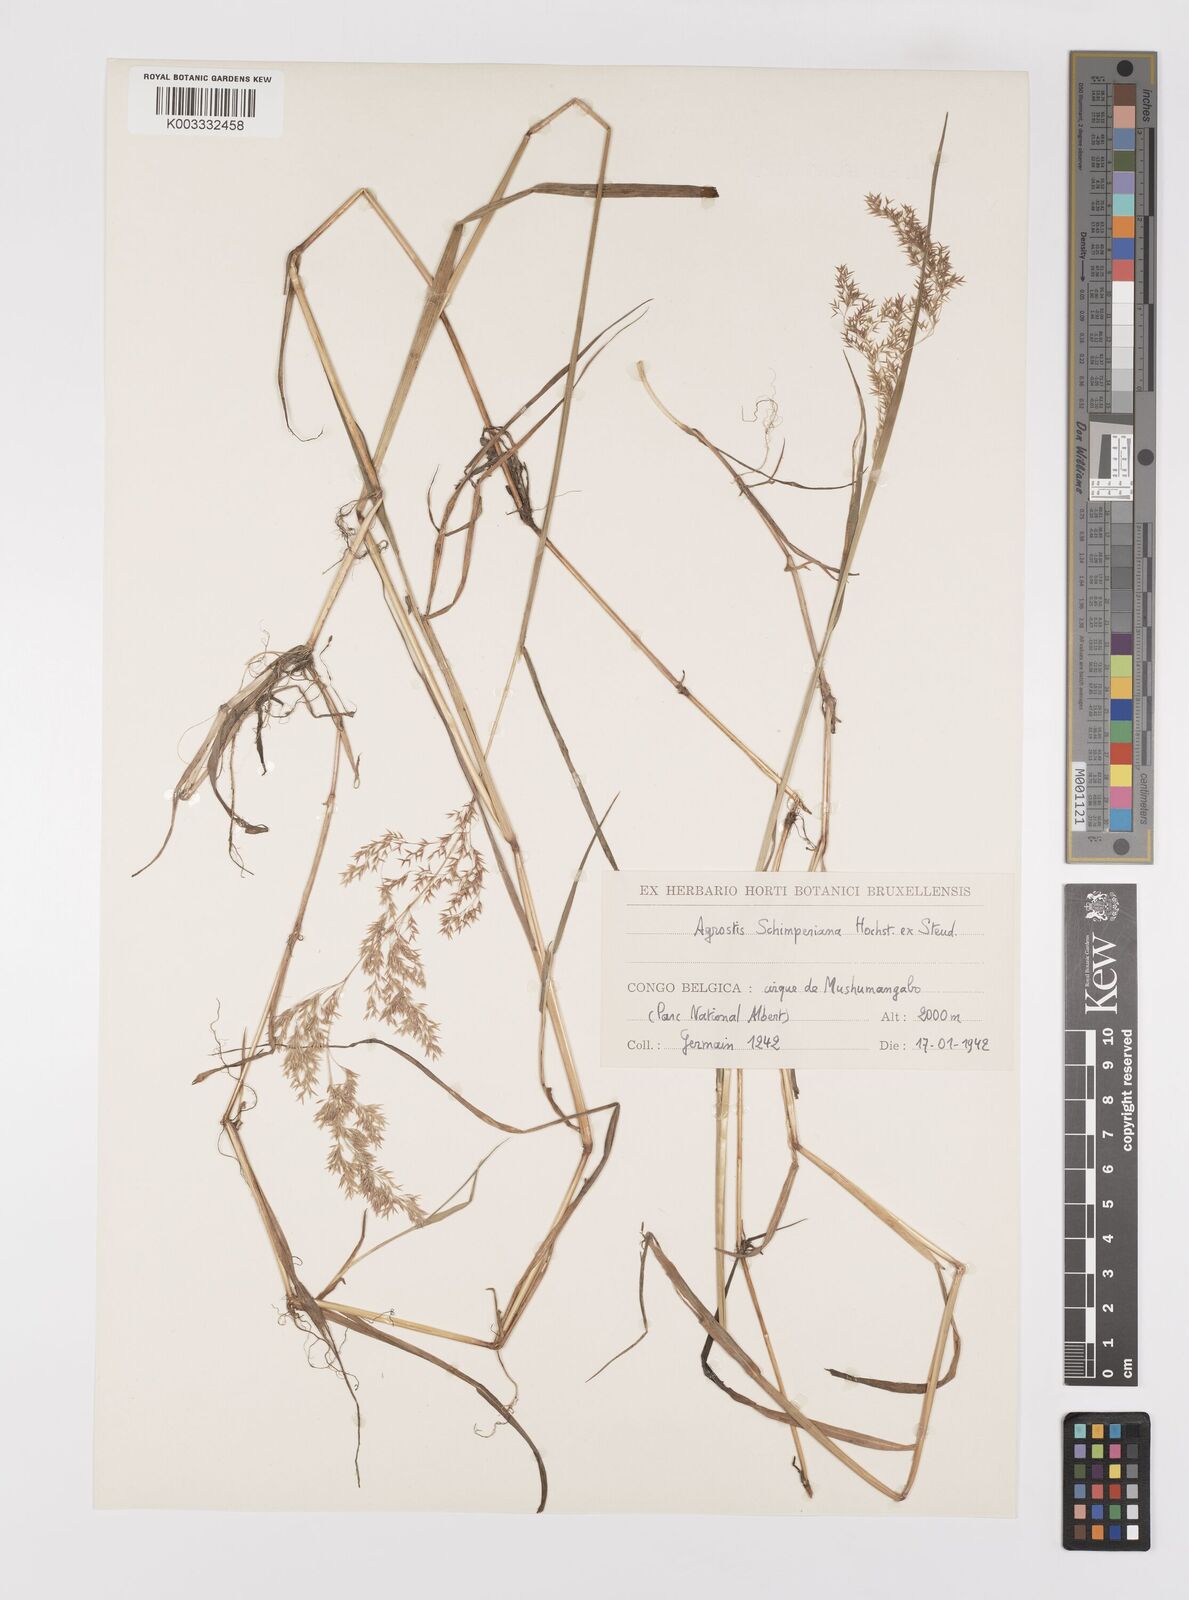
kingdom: Plantae
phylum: Tracheophyta
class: Liliopsida
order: Poales
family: Poaceae
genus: Polypogon
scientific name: Polypogon schimperianus
